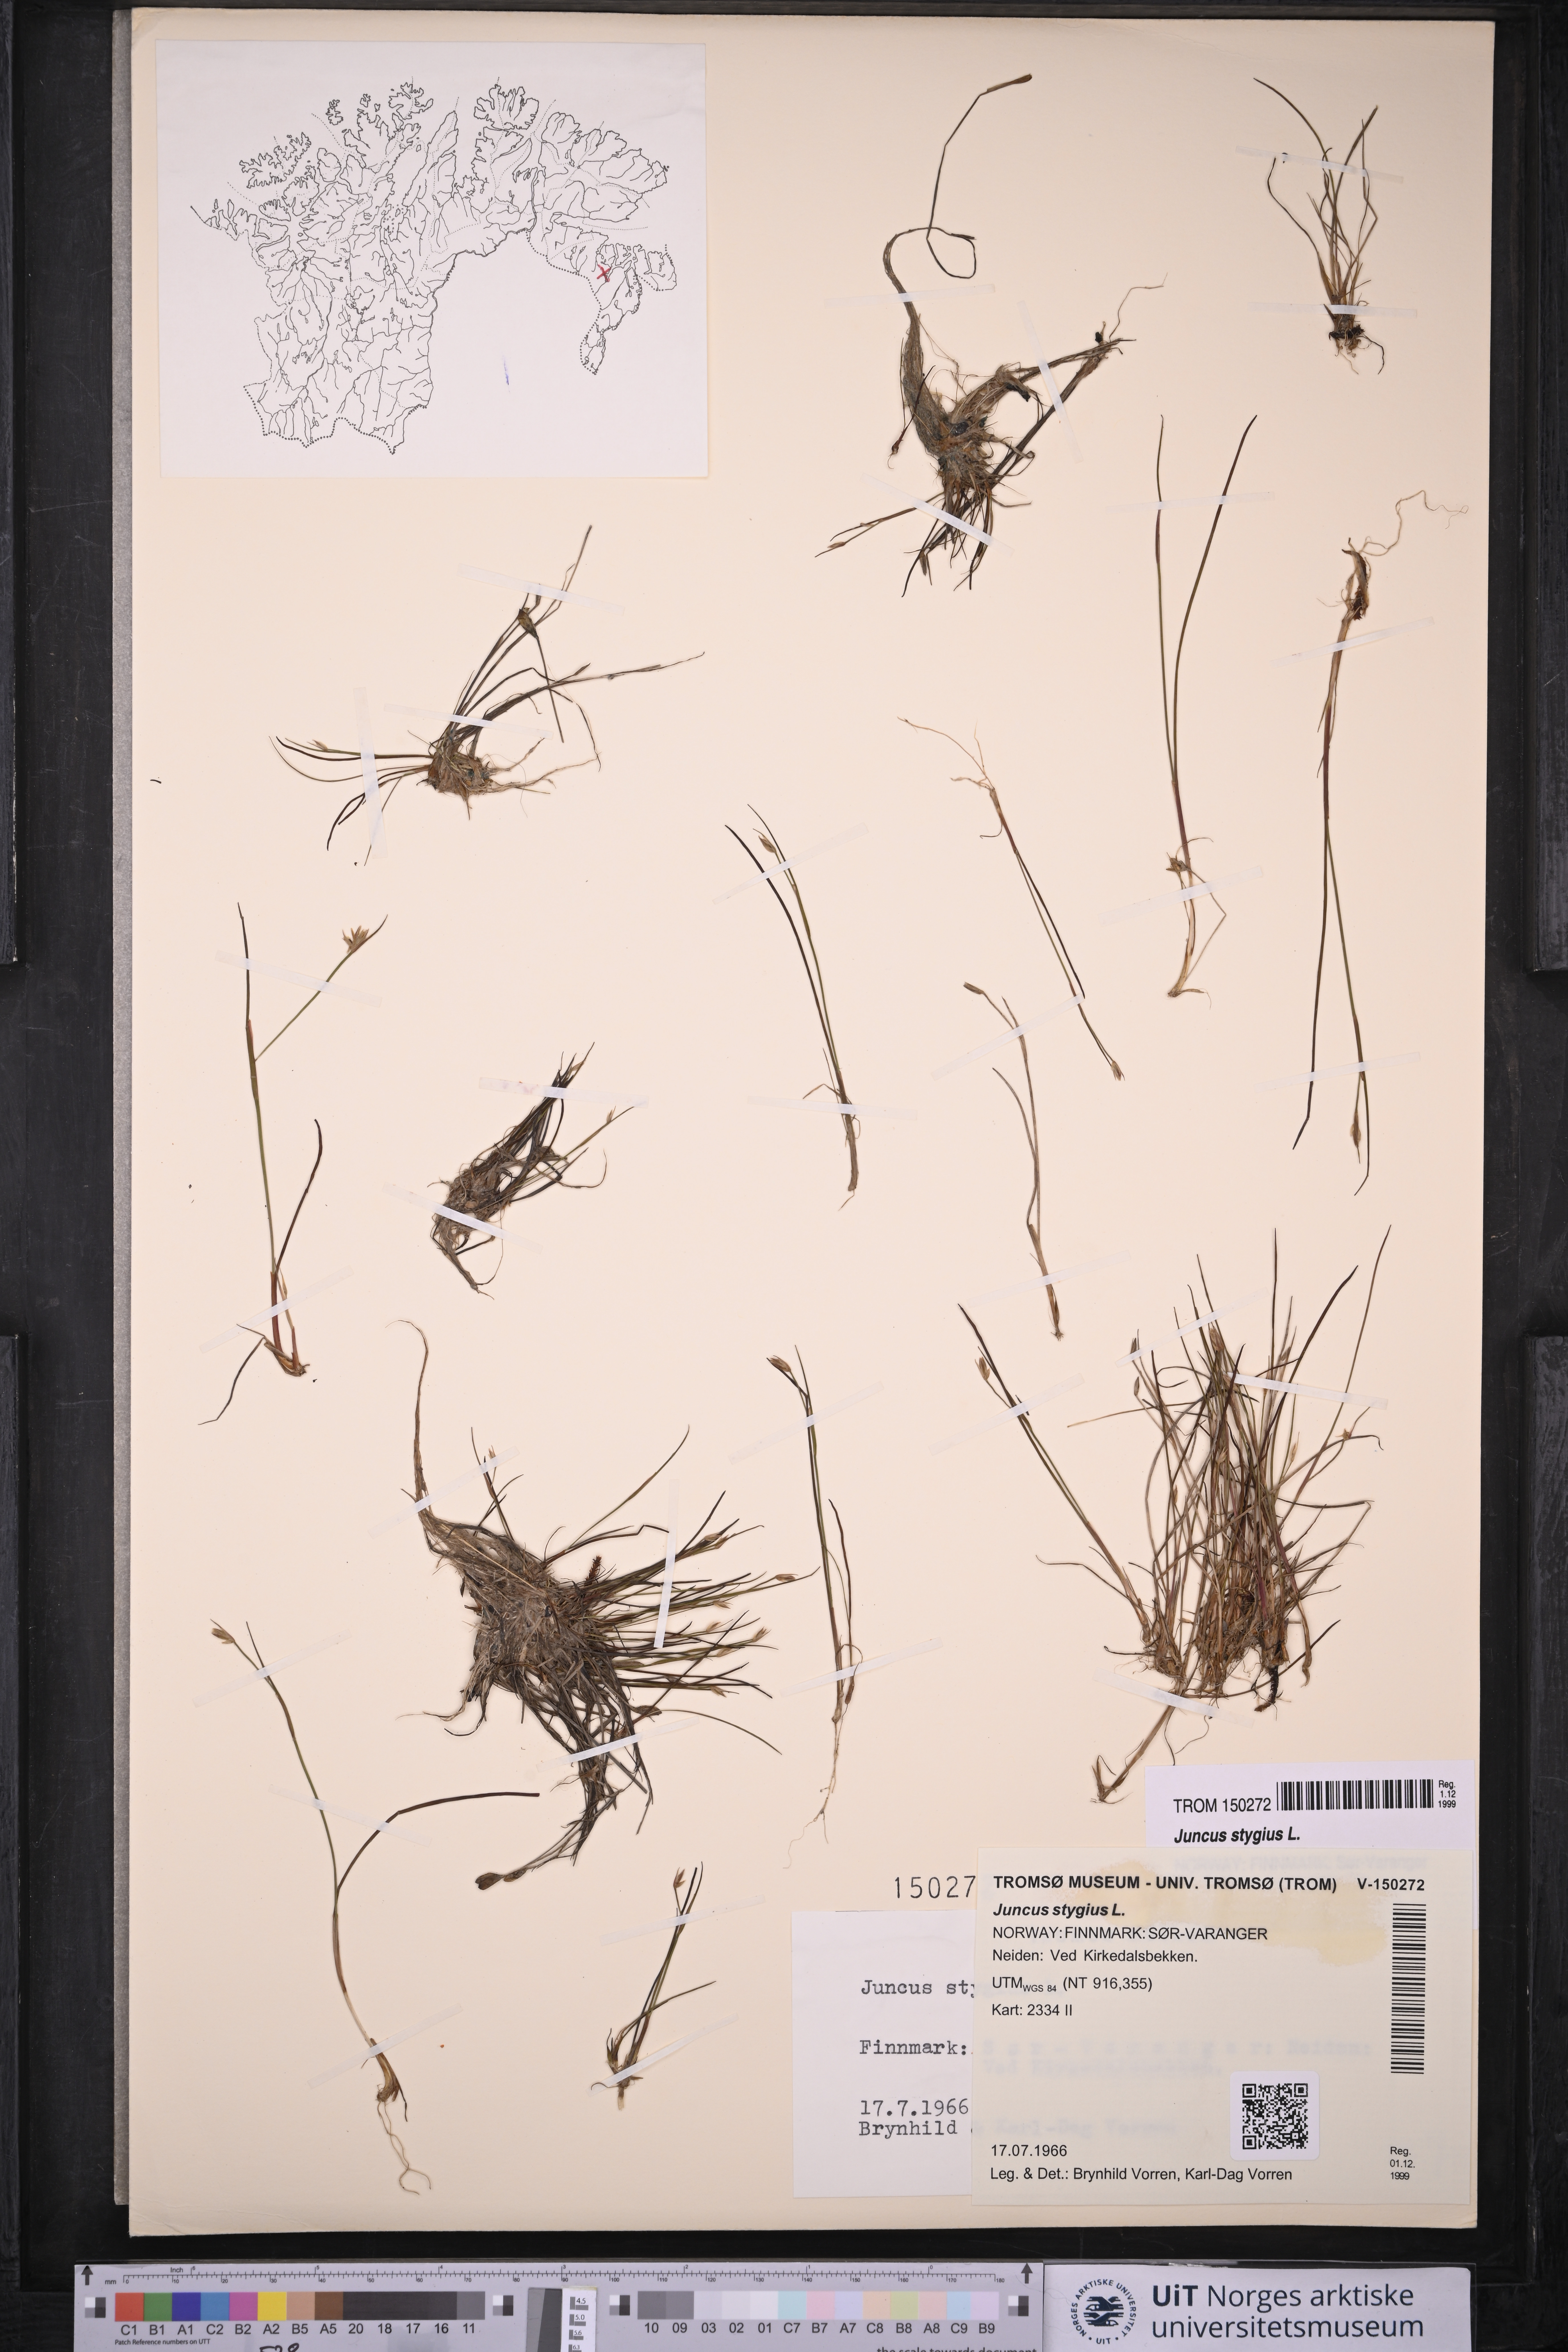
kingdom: Plantae
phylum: Tracheophyta
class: Liliopsida
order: Poales
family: Juncaceae
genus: Juncus
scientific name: Juncus stygius
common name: Bog rush
